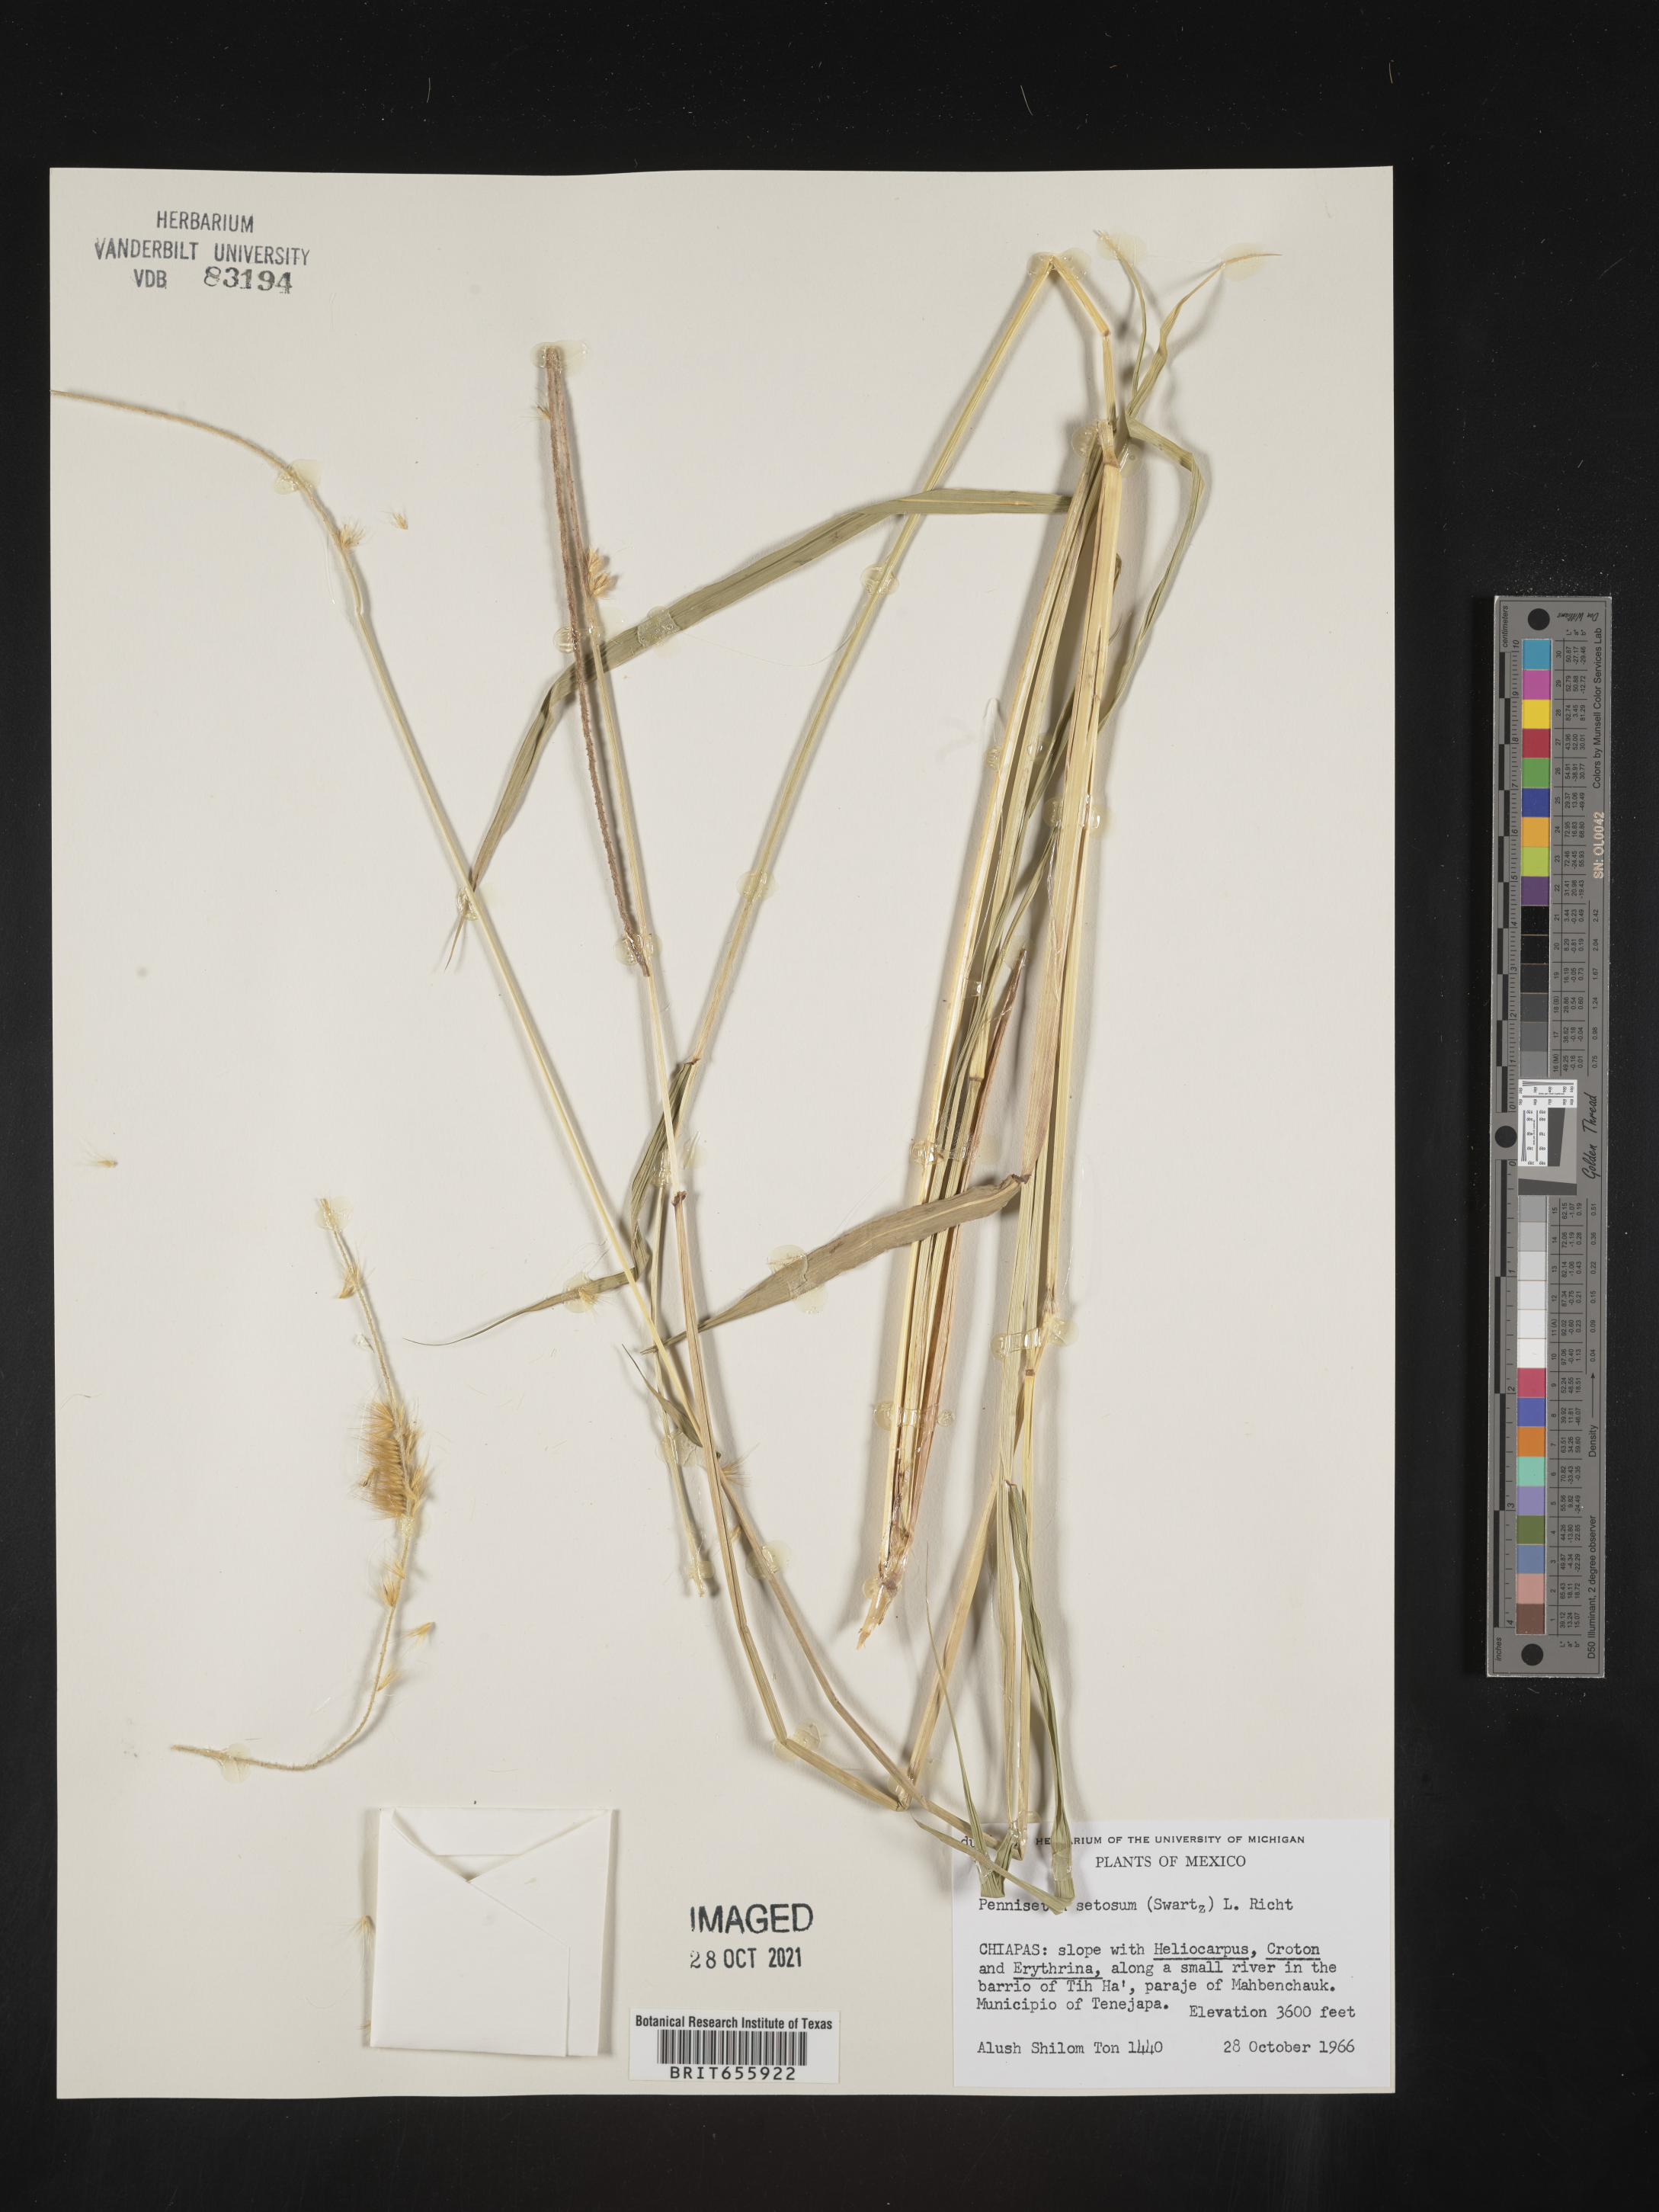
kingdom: Plantae
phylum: Tracheophyta
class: Liliopsida
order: Poales
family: Poaceae
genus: Cenchrus
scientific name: Cenchrus Pennisetum spec
